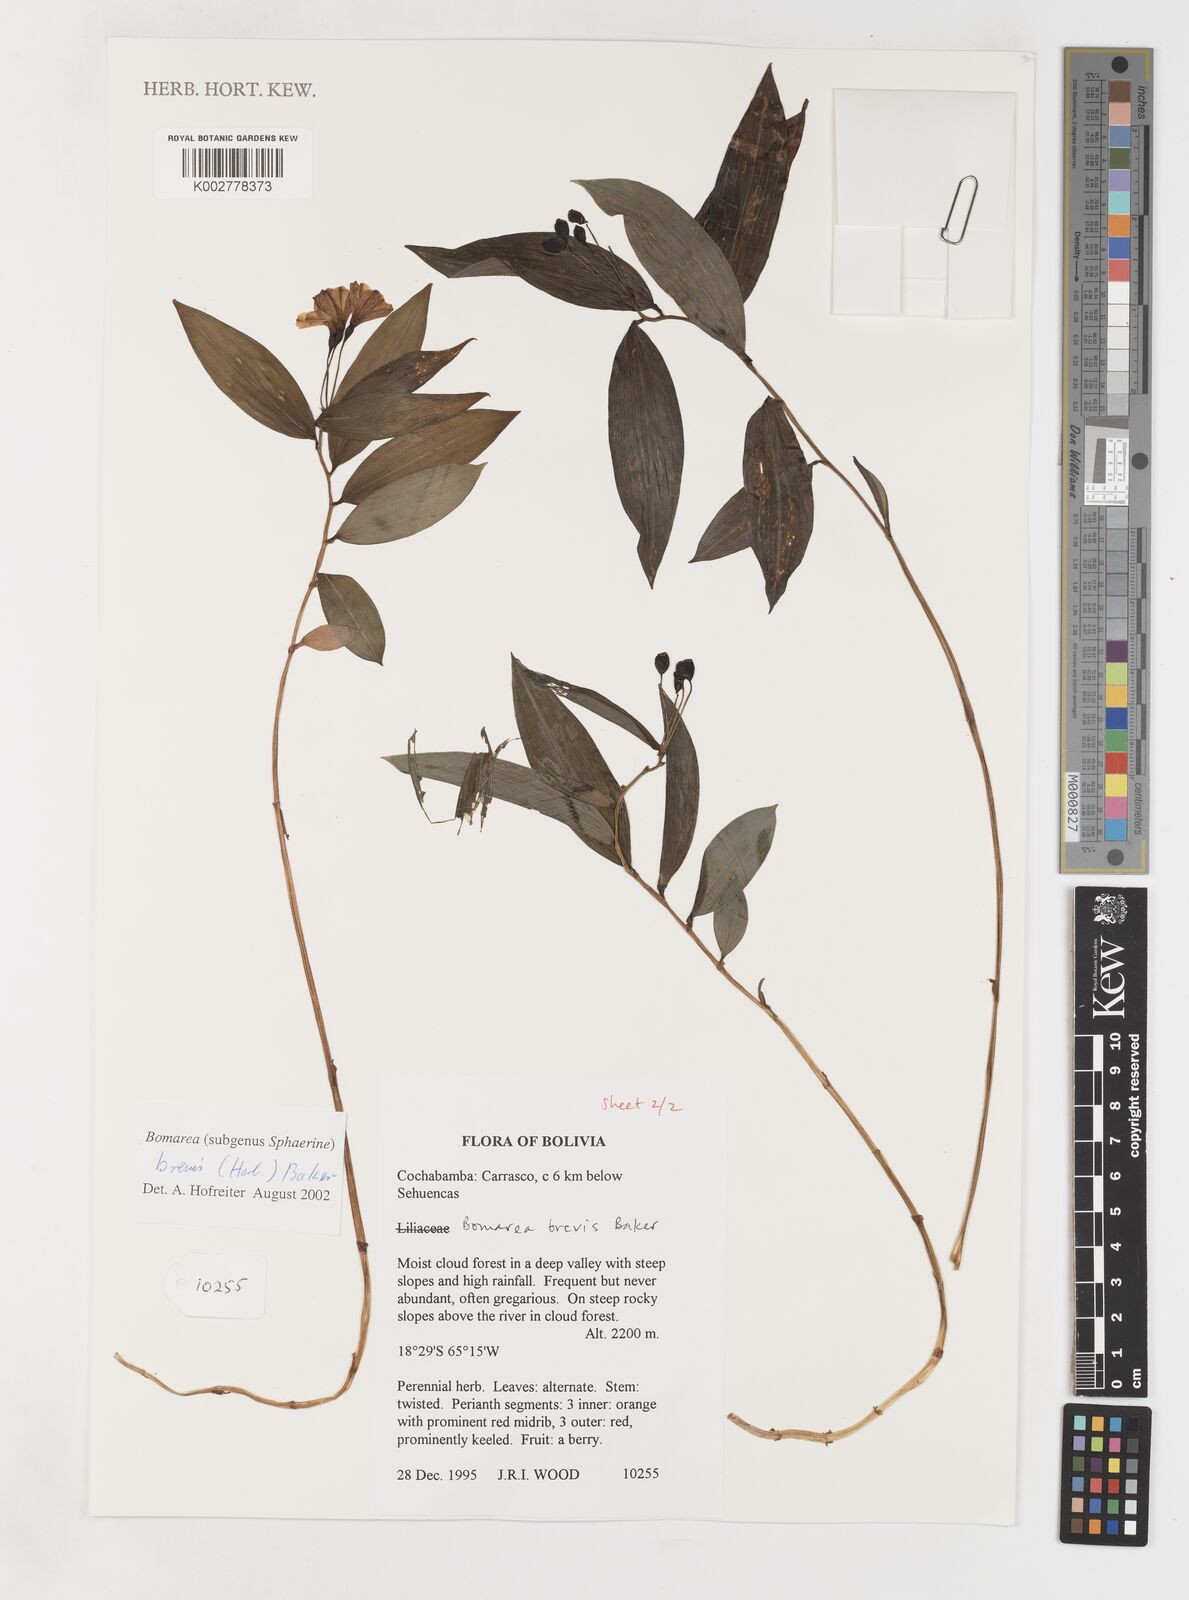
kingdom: Plantae
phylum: Tracheophyta
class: Liliopsida
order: Liliales
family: Alstroemeriaceae
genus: Bomarea
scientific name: Bomarea brevis
